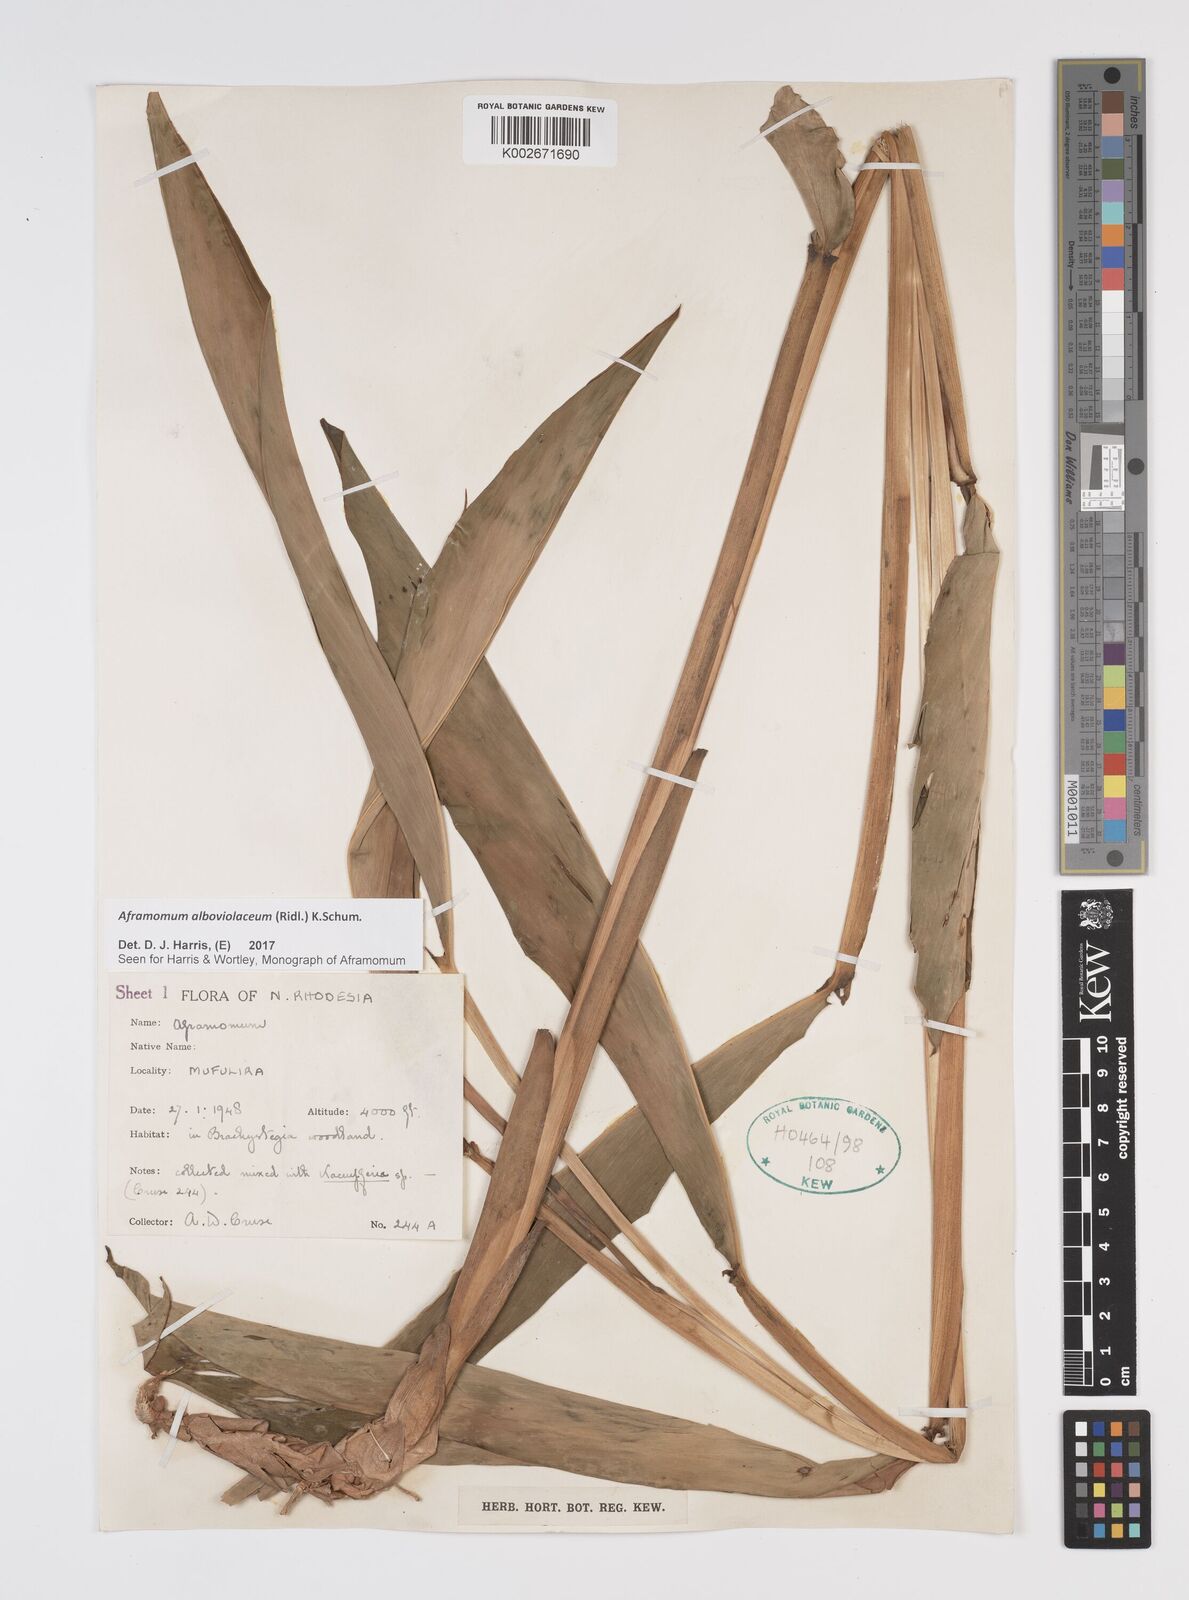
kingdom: Plantae
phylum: Tracheophyta
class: Liliopsida
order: Zingiberales
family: Zingiberaceae
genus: Aframomum
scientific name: Aframomum alboviolaceum
